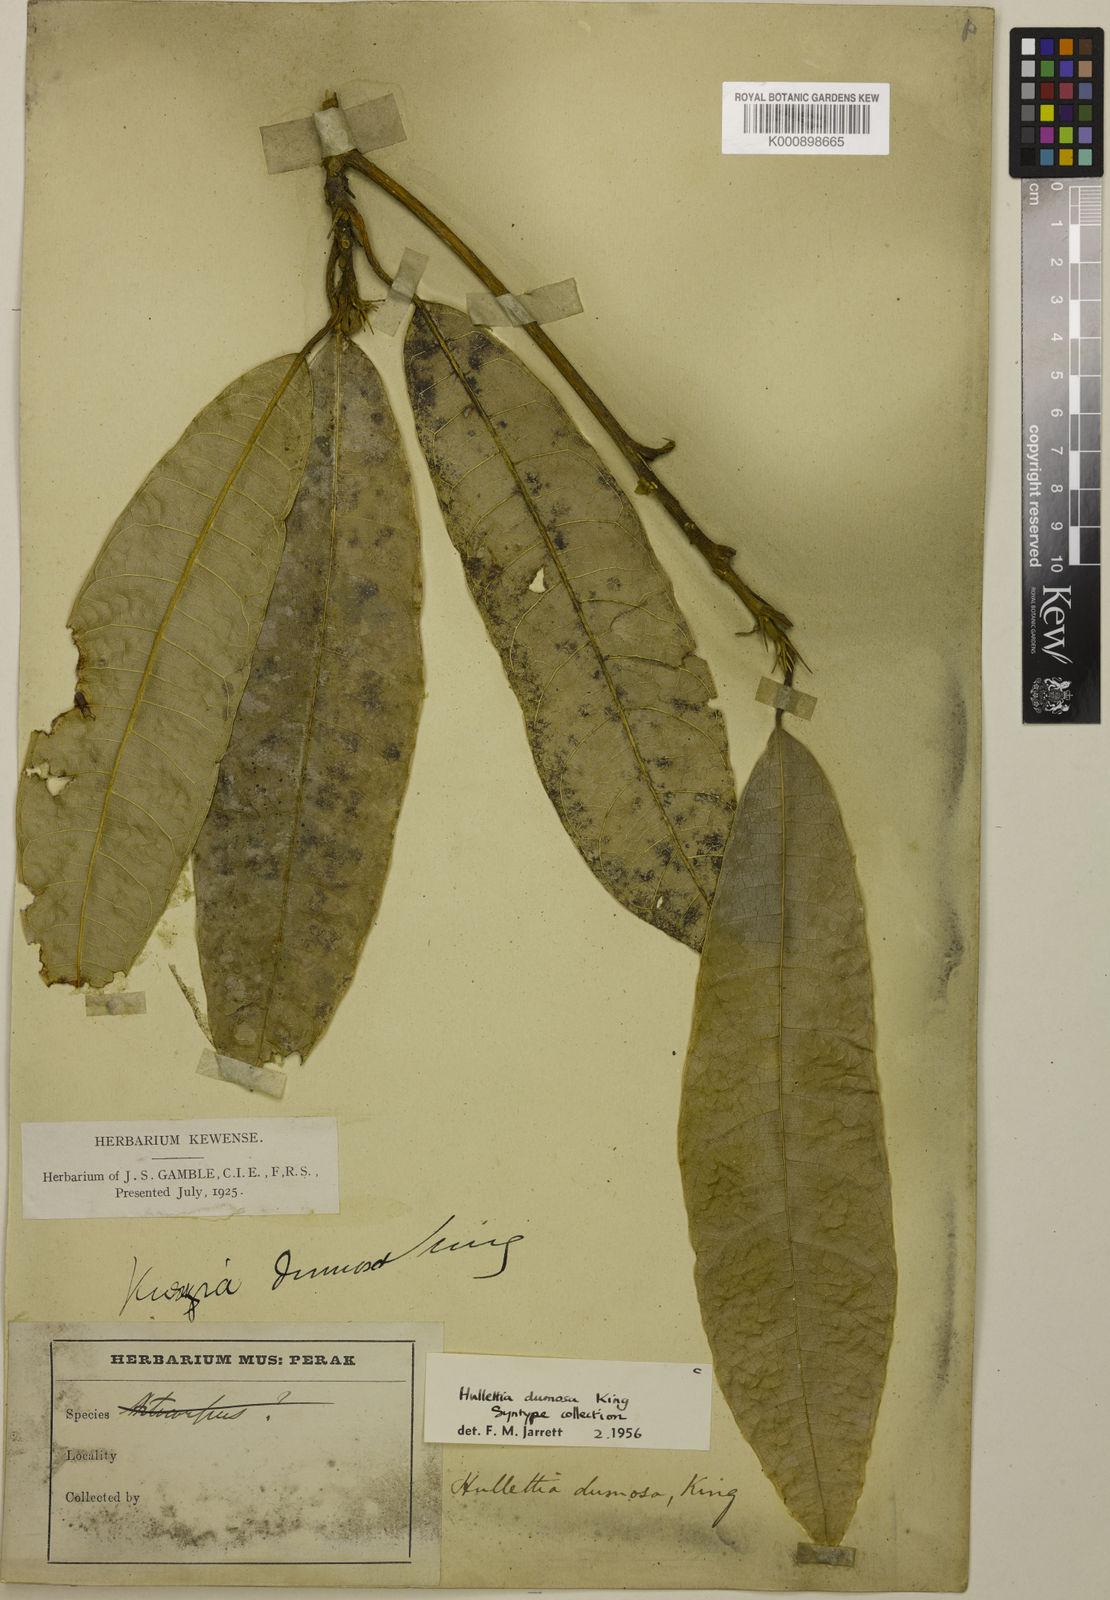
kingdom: Plantae
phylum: Tracheophyta
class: Magnoliopsida
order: Rosales
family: Moraceae
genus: Hullettia
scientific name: Hullettia
